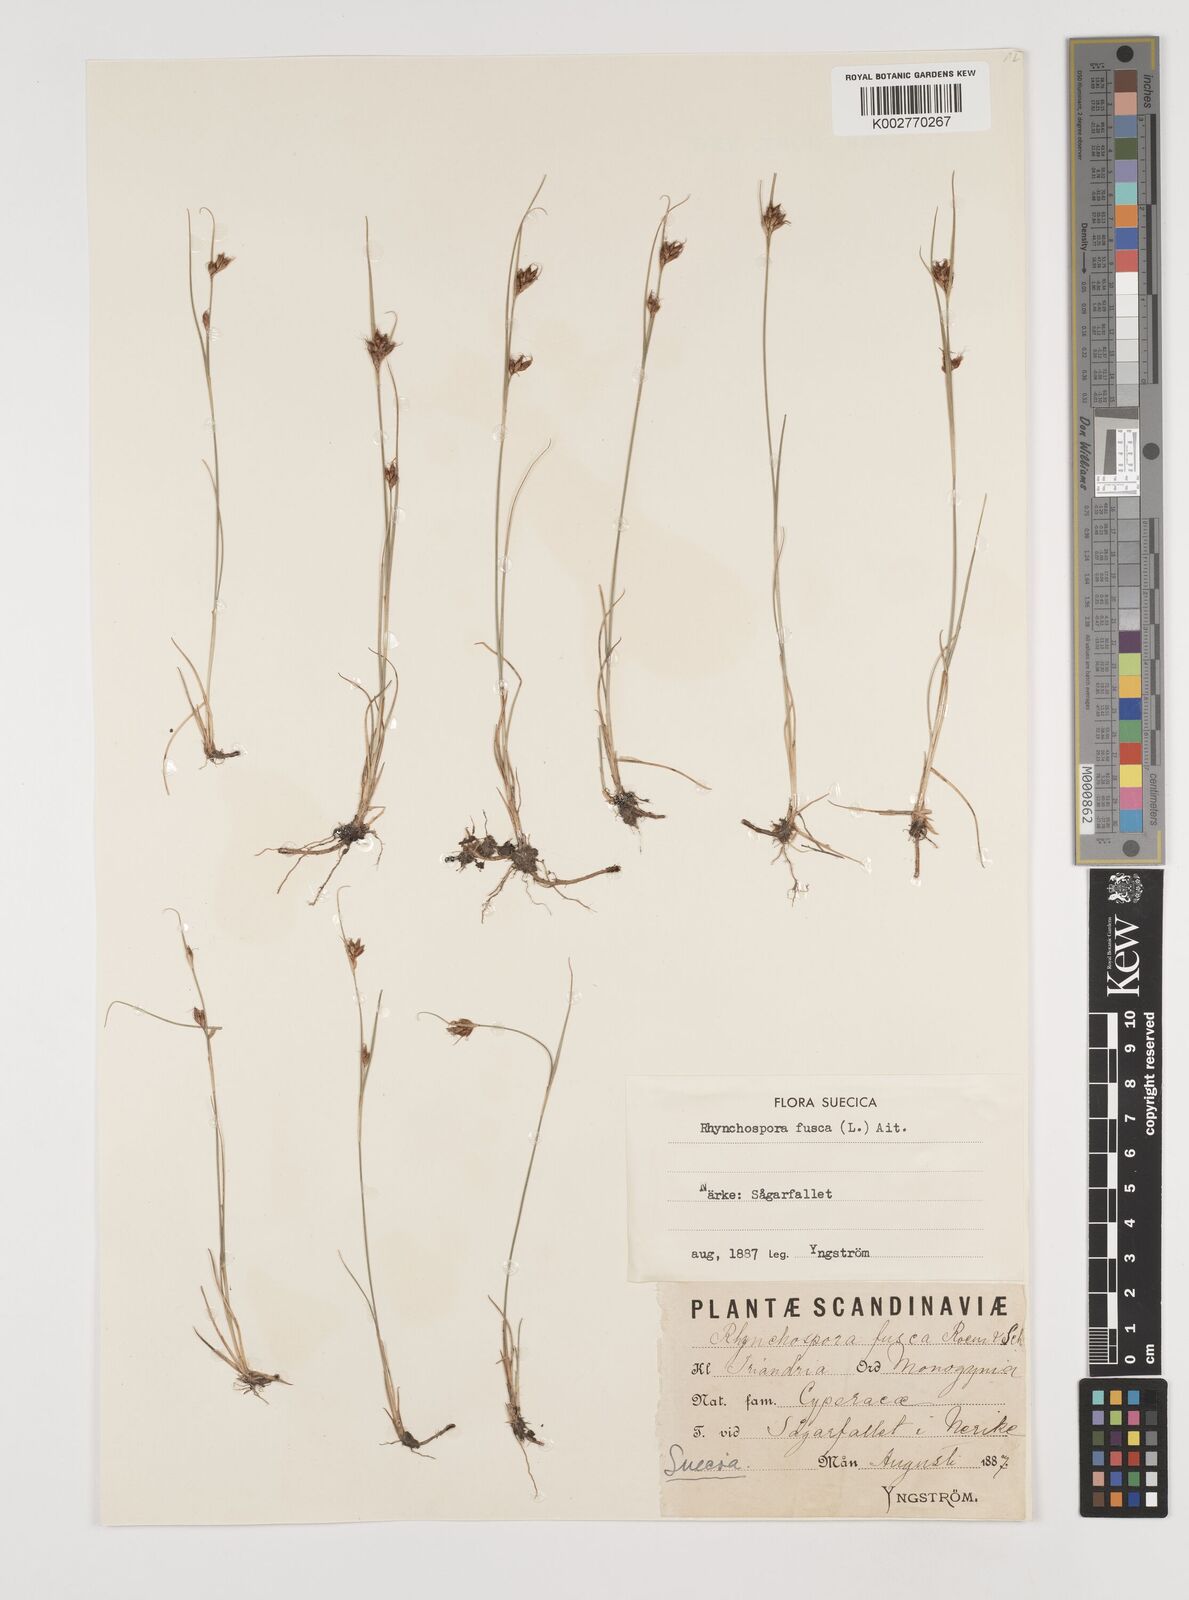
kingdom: Plantae
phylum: Tracheophyta
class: Liliopsida
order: Poales
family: Cyperaceae
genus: Rhynchospora
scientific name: Rhynchospora fusca
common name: Brown beak-sedge
